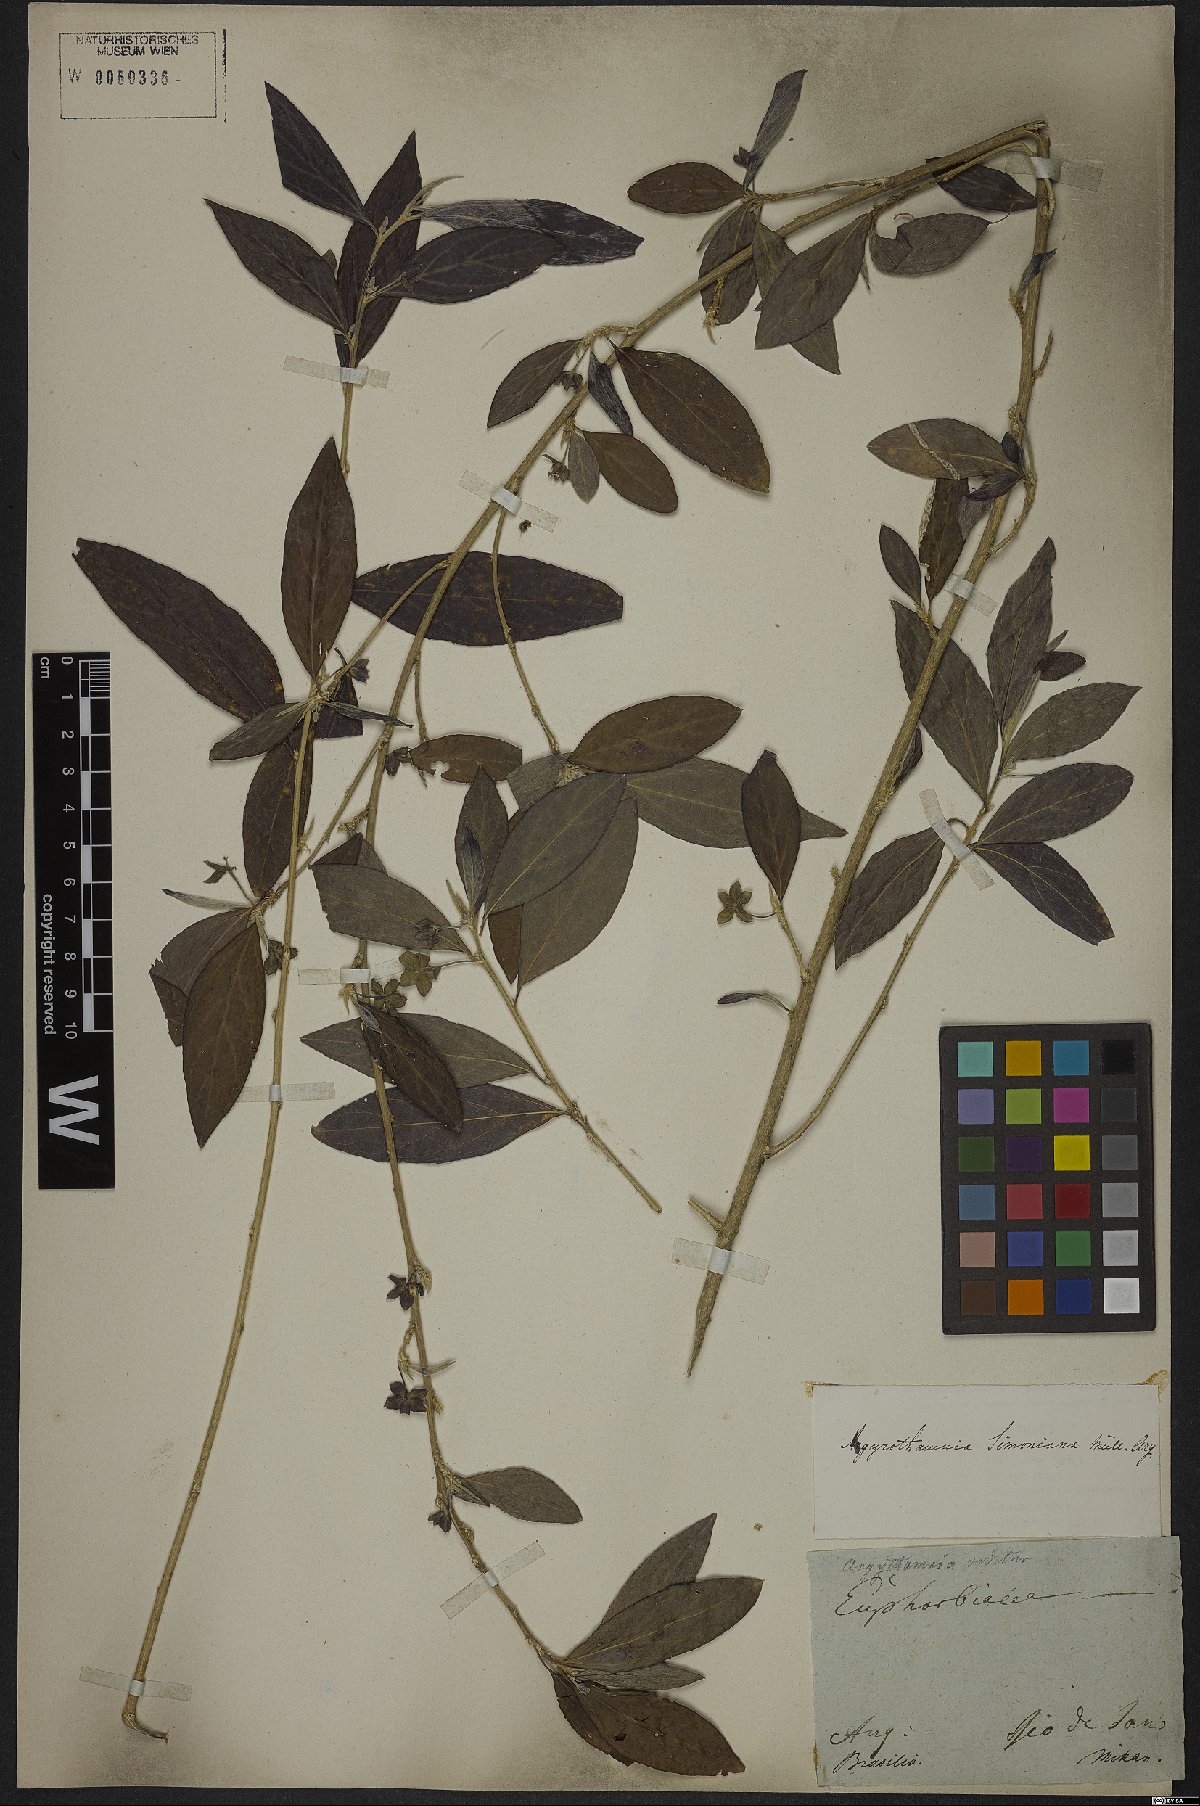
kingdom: Plantae
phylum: Tracheophyta
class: Magnoliopsida
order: Malpighiales
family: Euphorbiaceae
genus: Ditaxis
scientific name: Ditaxis simoniana
